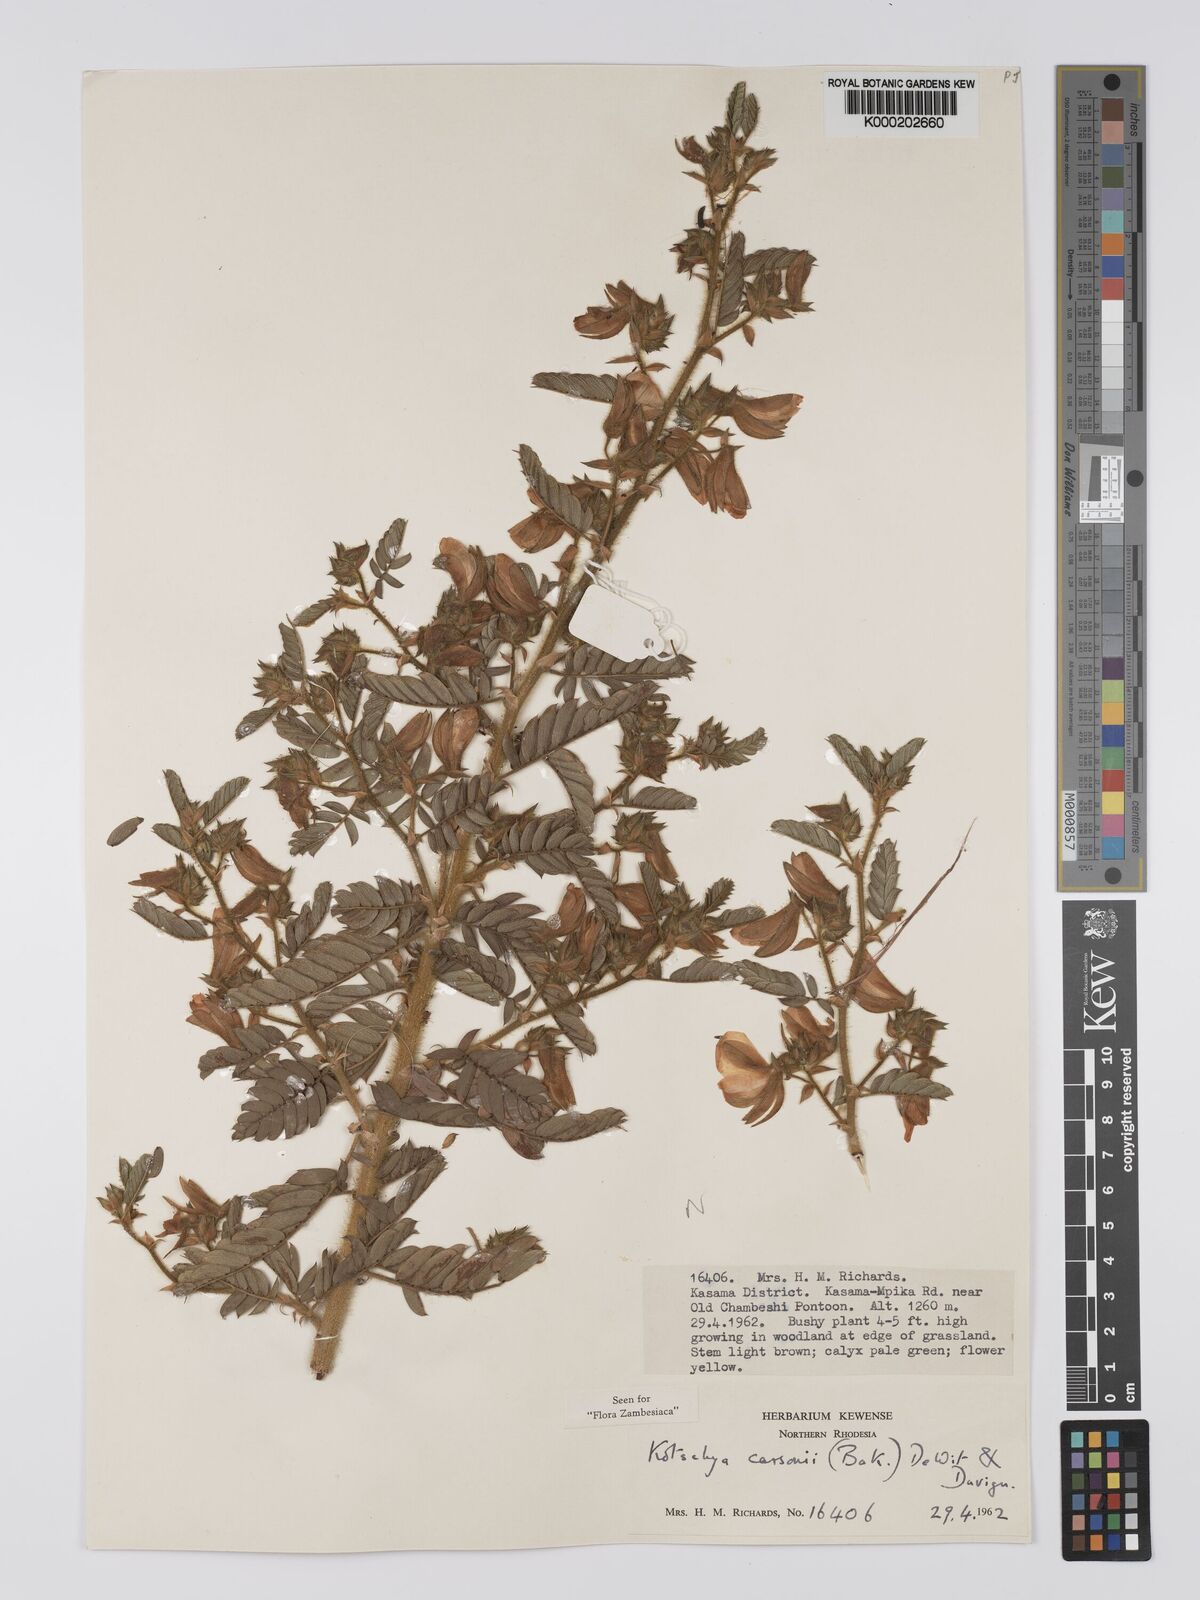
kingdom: Plantae
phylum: Tracheophyta
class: Magnoliopsida
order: Fabales
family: Fabaceae
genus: Kotschya
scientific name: Kotschya carsonii
